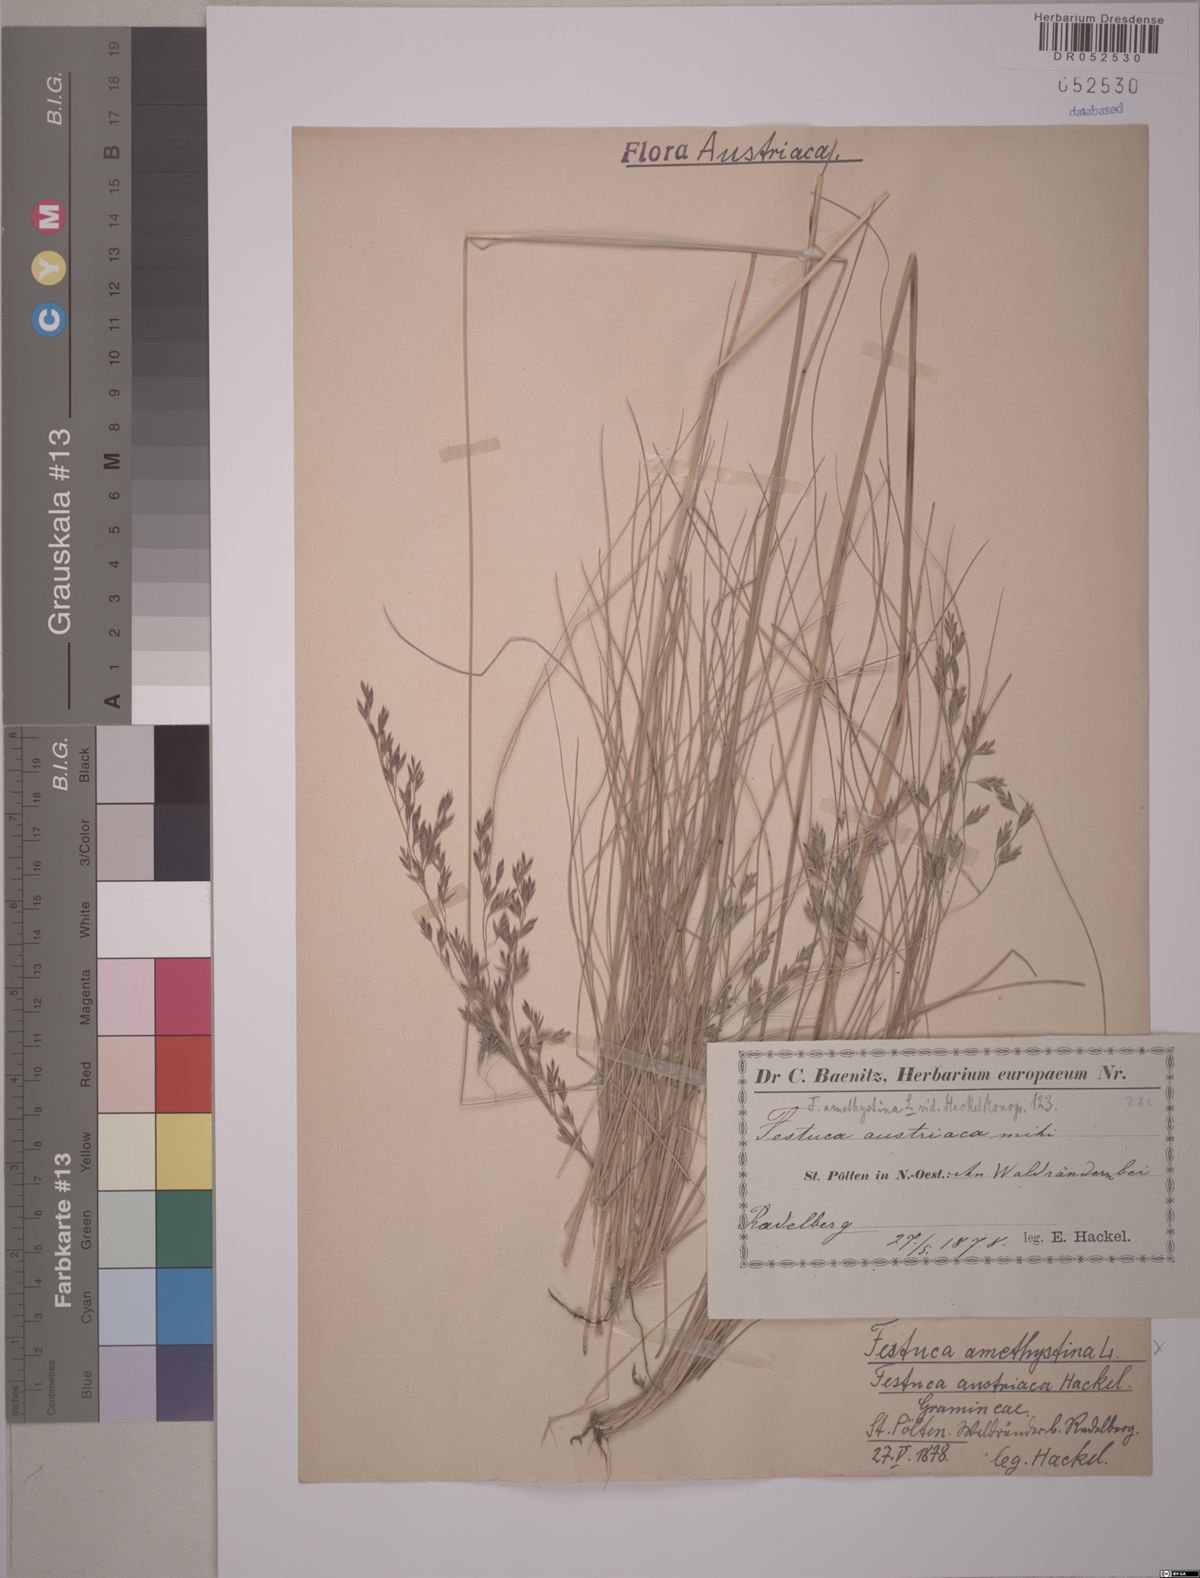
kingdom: Plantae
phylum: Tracheophyta
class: Liliopsida
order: Poales
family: Poaceae
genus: Festuca
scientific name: Festuca amethystina
